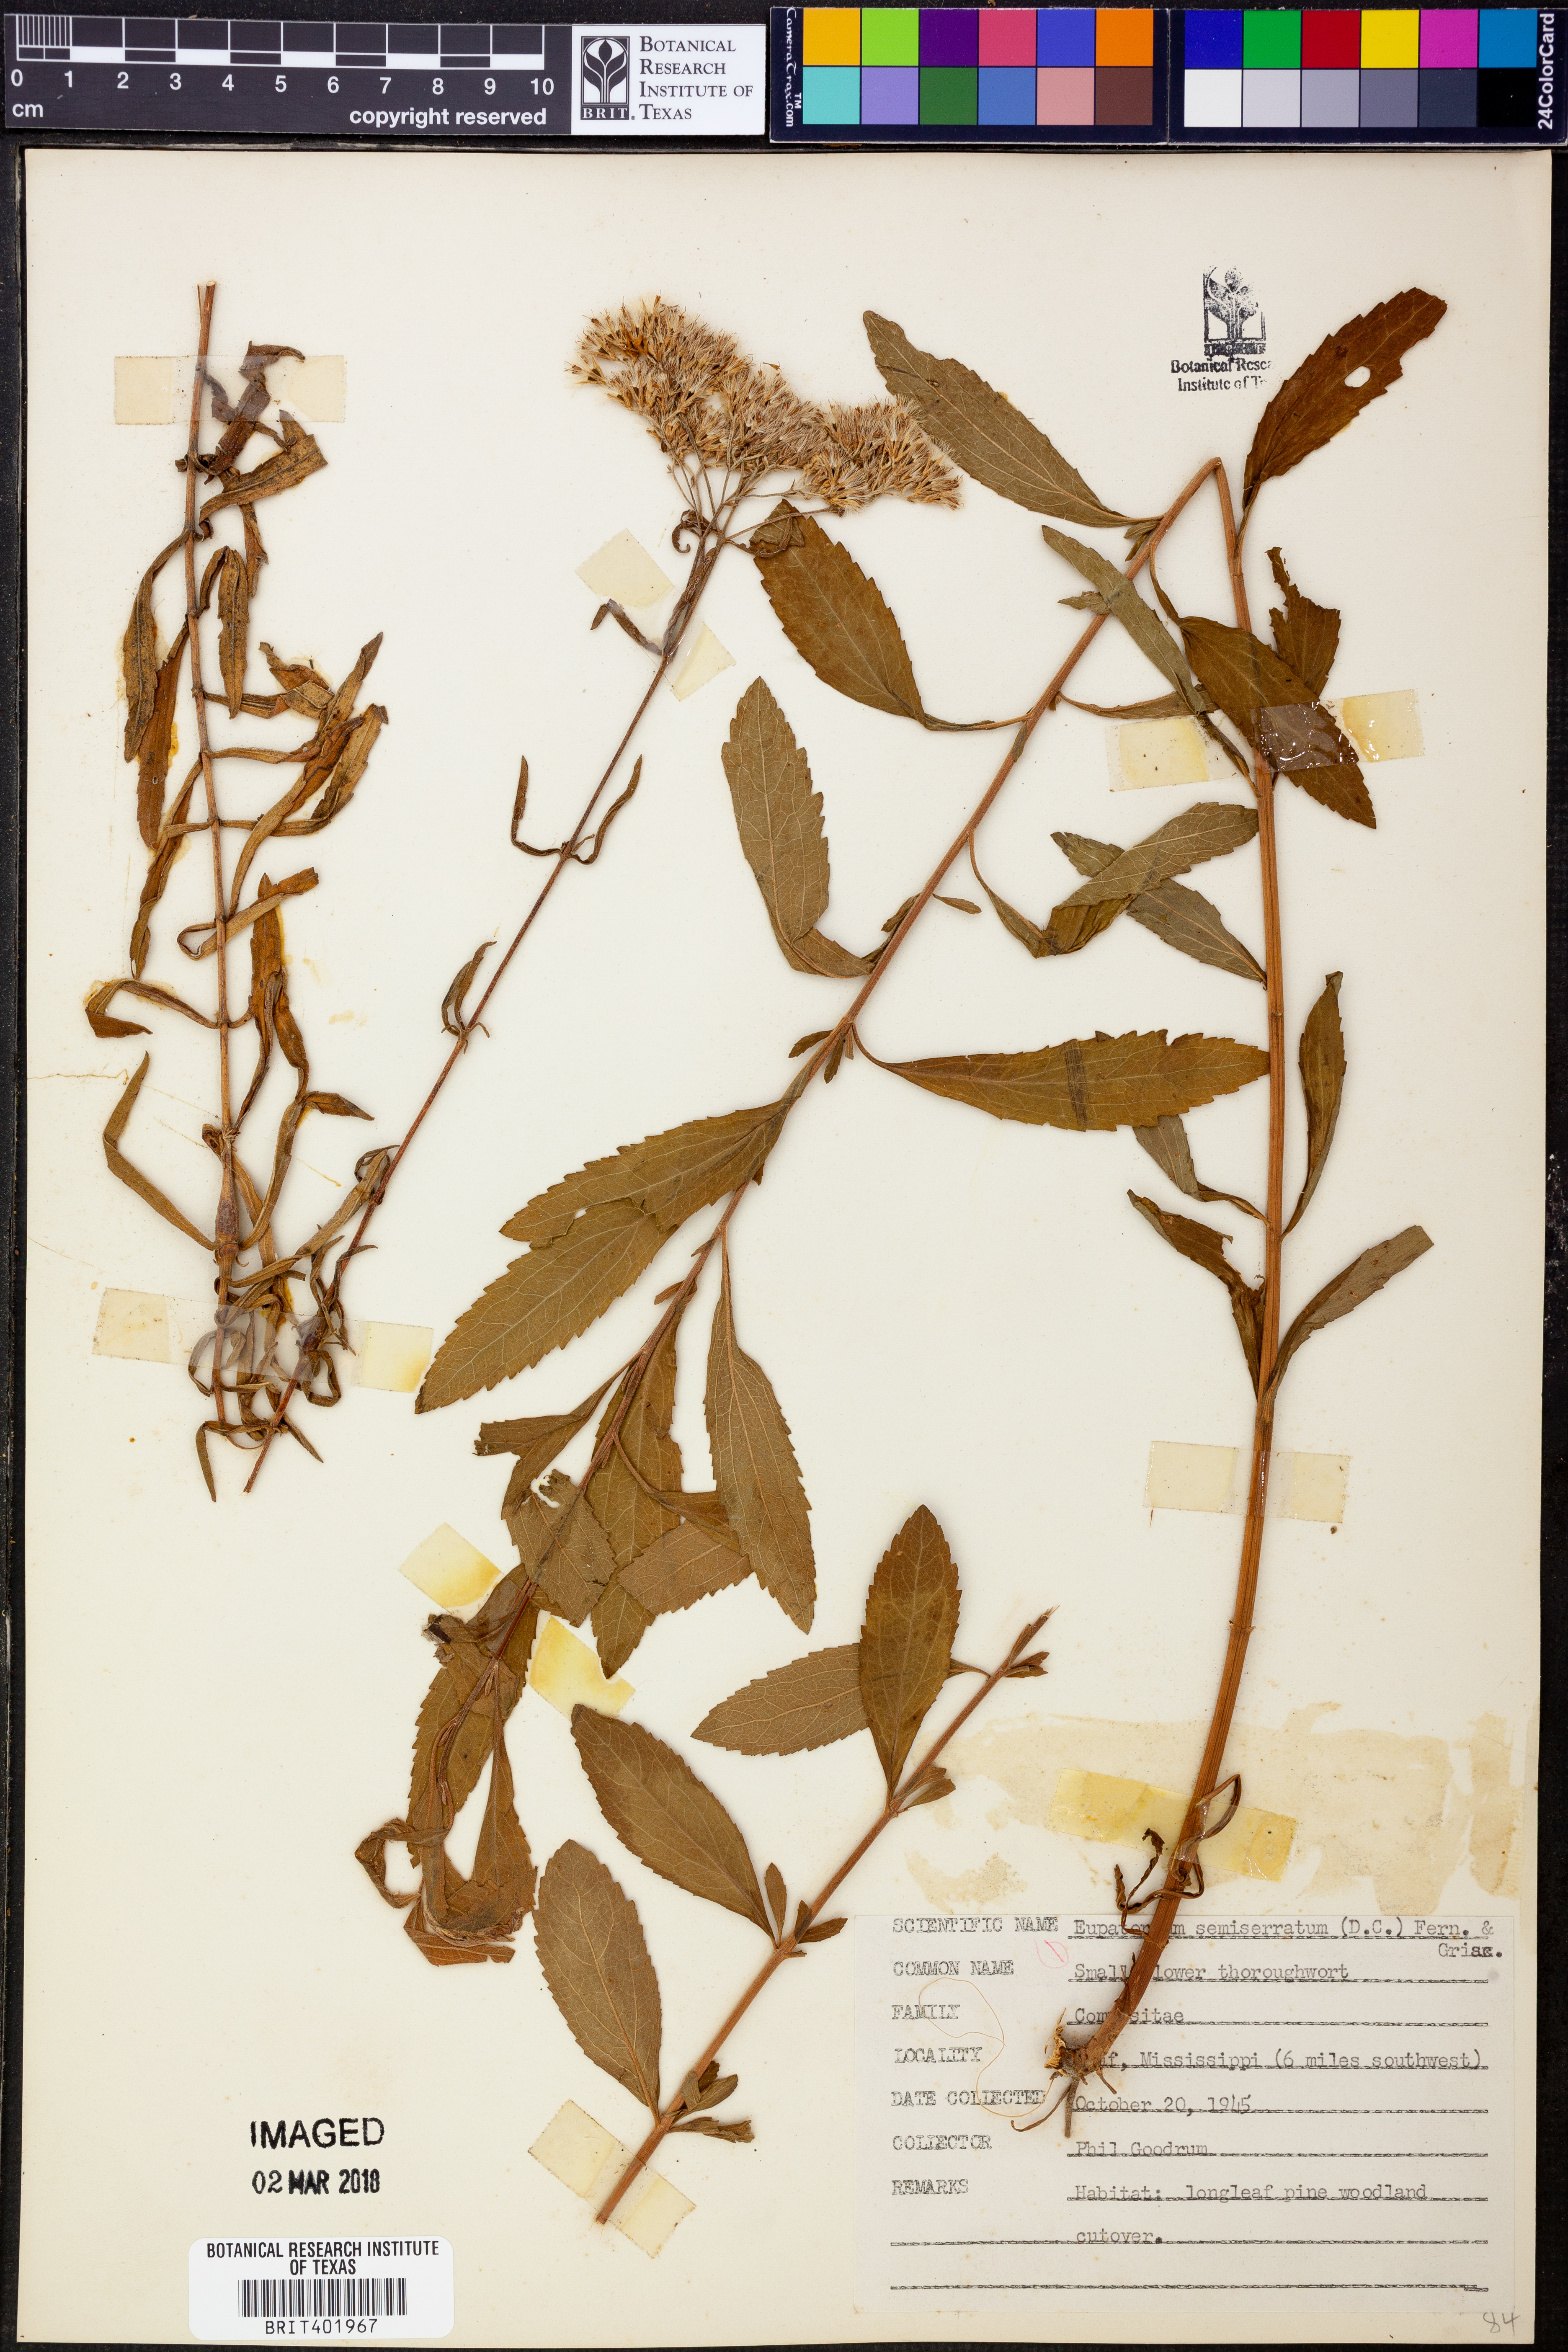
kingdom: Plantae
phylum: Tracheophyta
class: Magnoliopsida
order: Asterales
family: Asteraceae
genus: Eupatorium
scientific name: Eupatorium semiserratum
